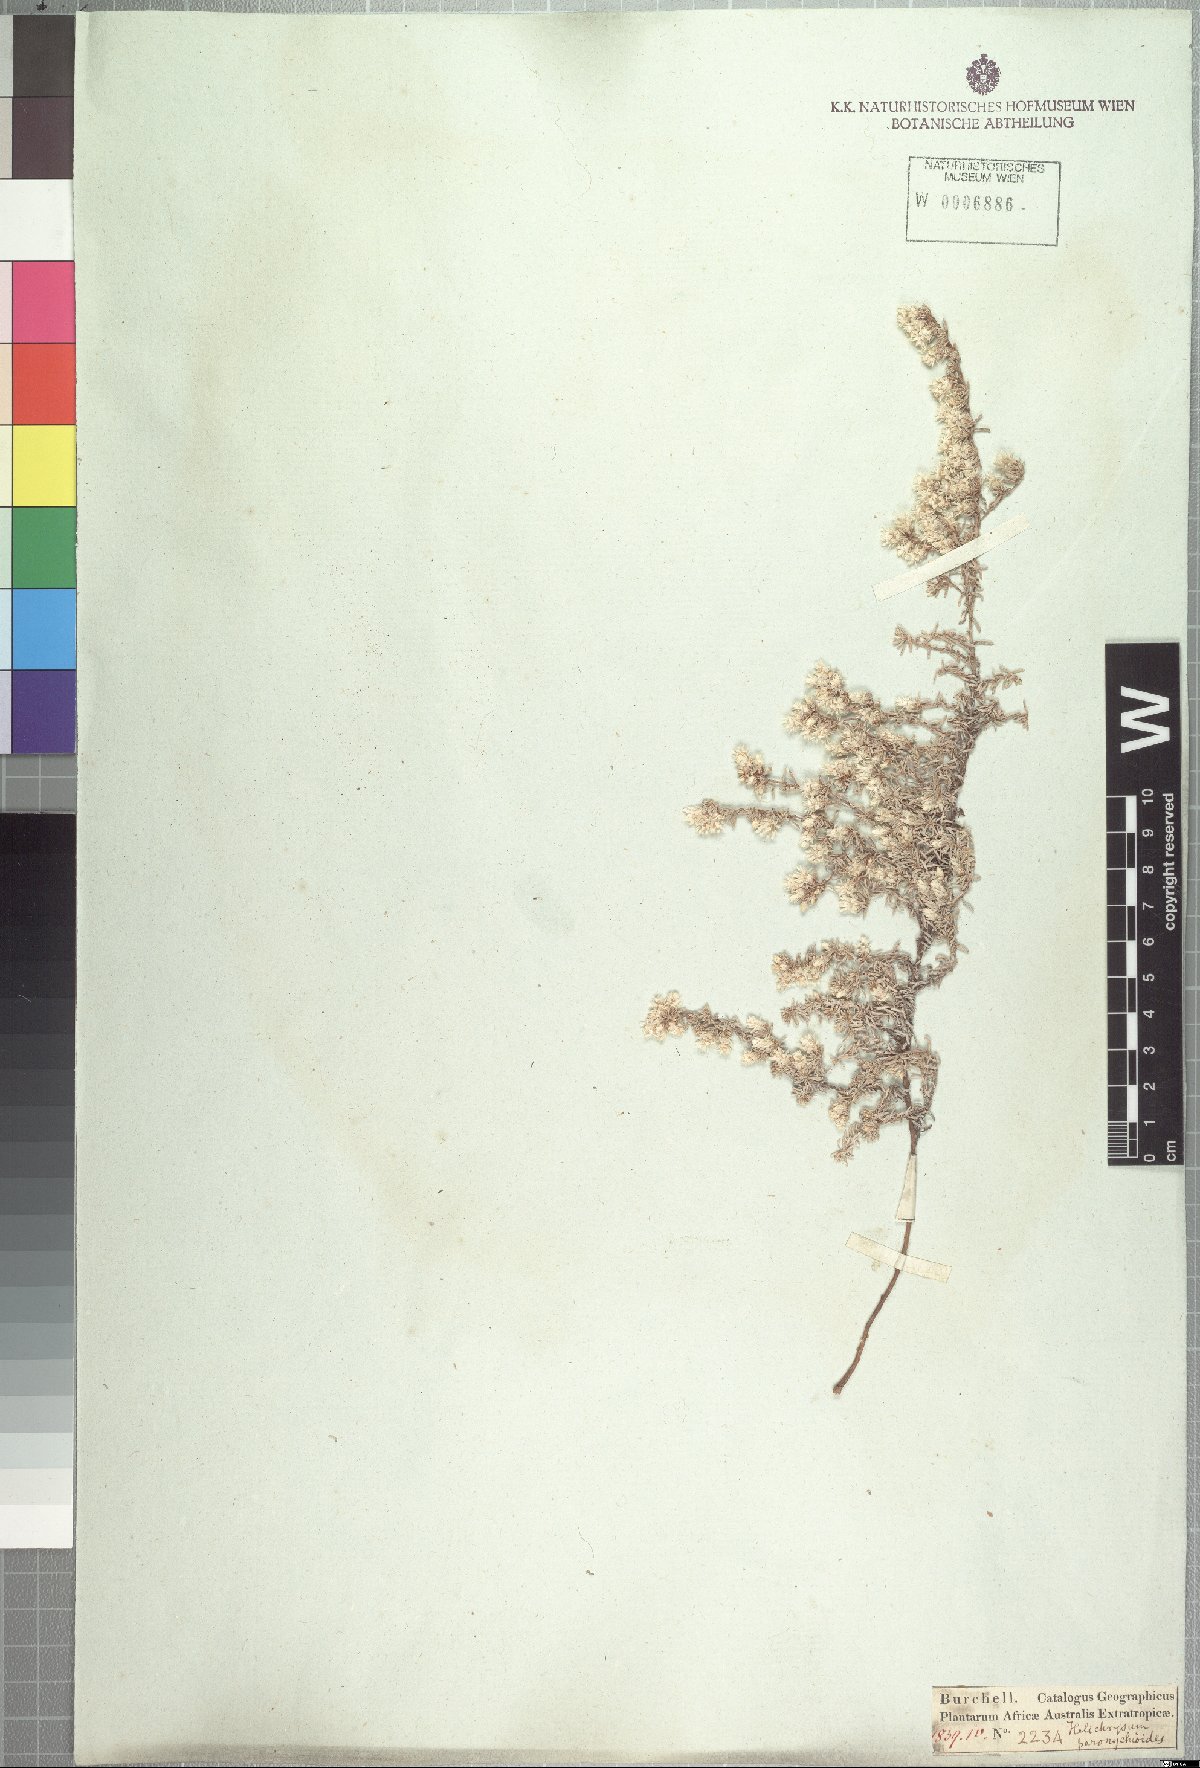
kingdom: Plantae
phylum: Tracheophyta
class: Magnoliopsida
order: Asterales
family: Asteraceae
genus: Helichrysum
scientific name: Helichrysum paronychioides
